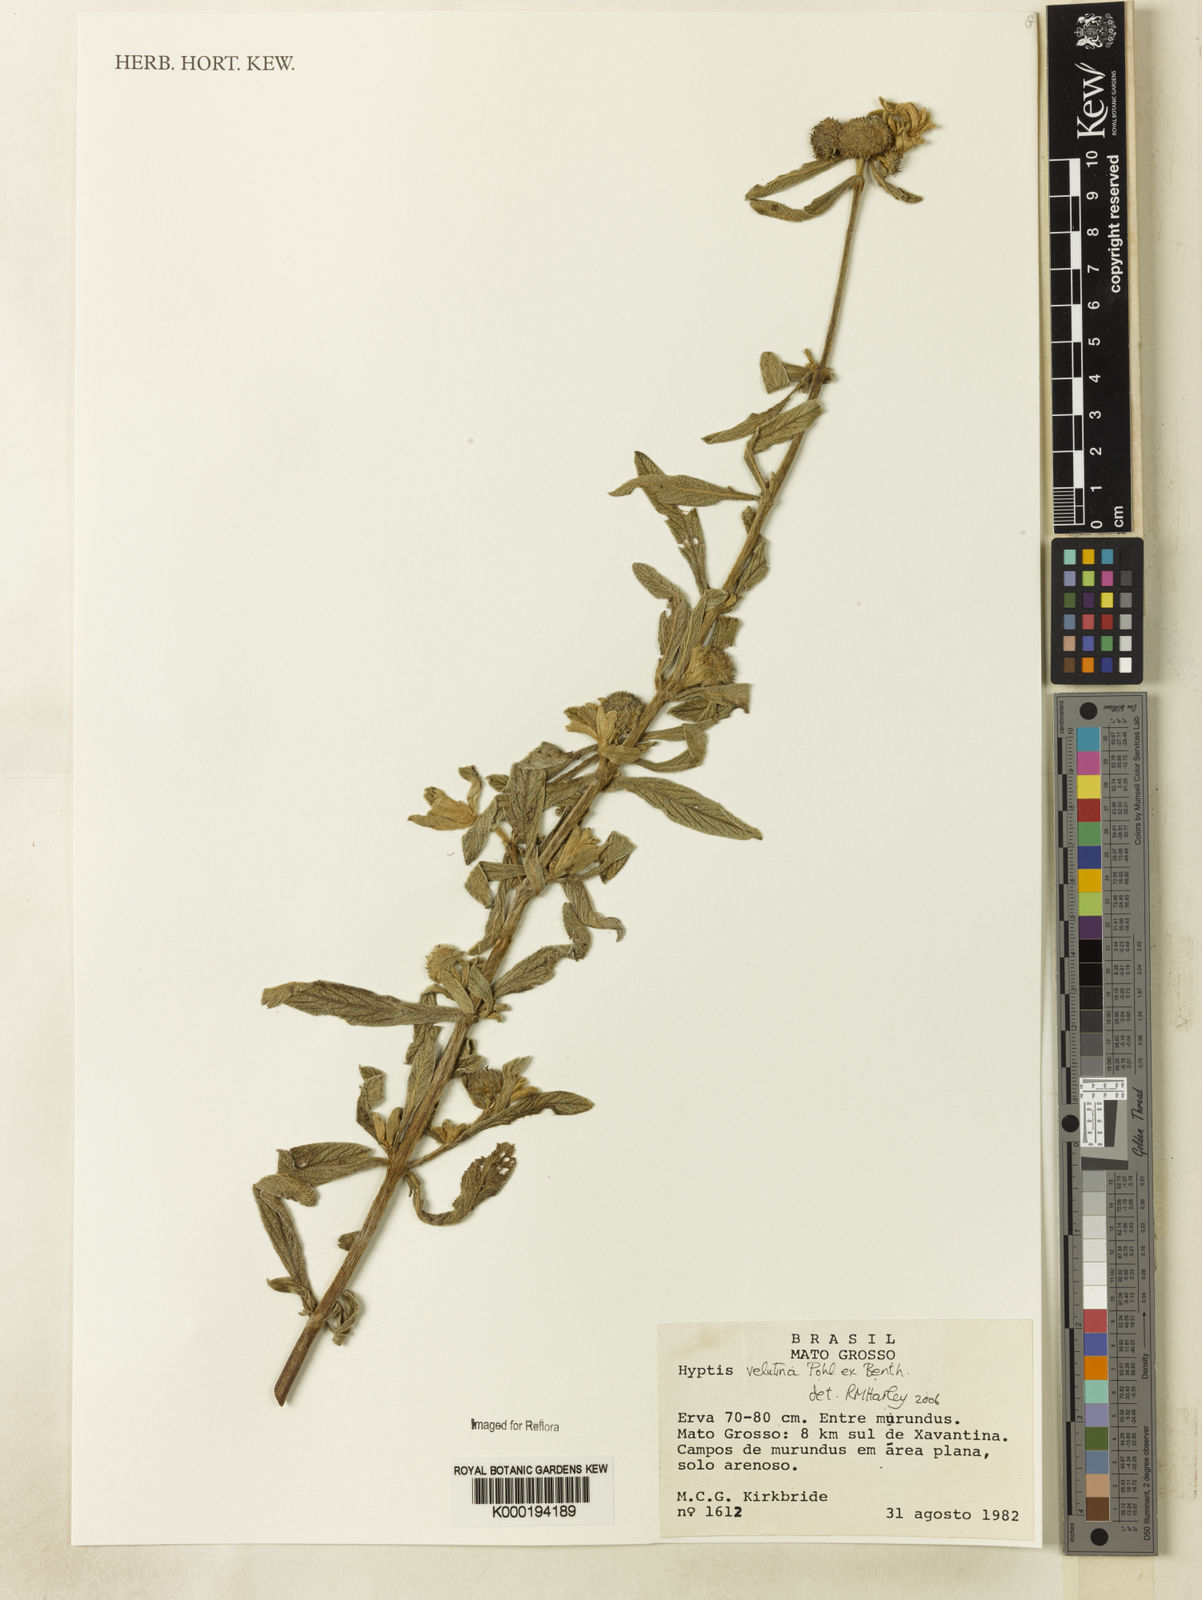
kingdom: Plantae
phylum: Tracheophyta
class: Magnoliopsida
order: Lamiales
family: Lamiaceae
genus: Hyptis
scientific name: Hyptis velutina
